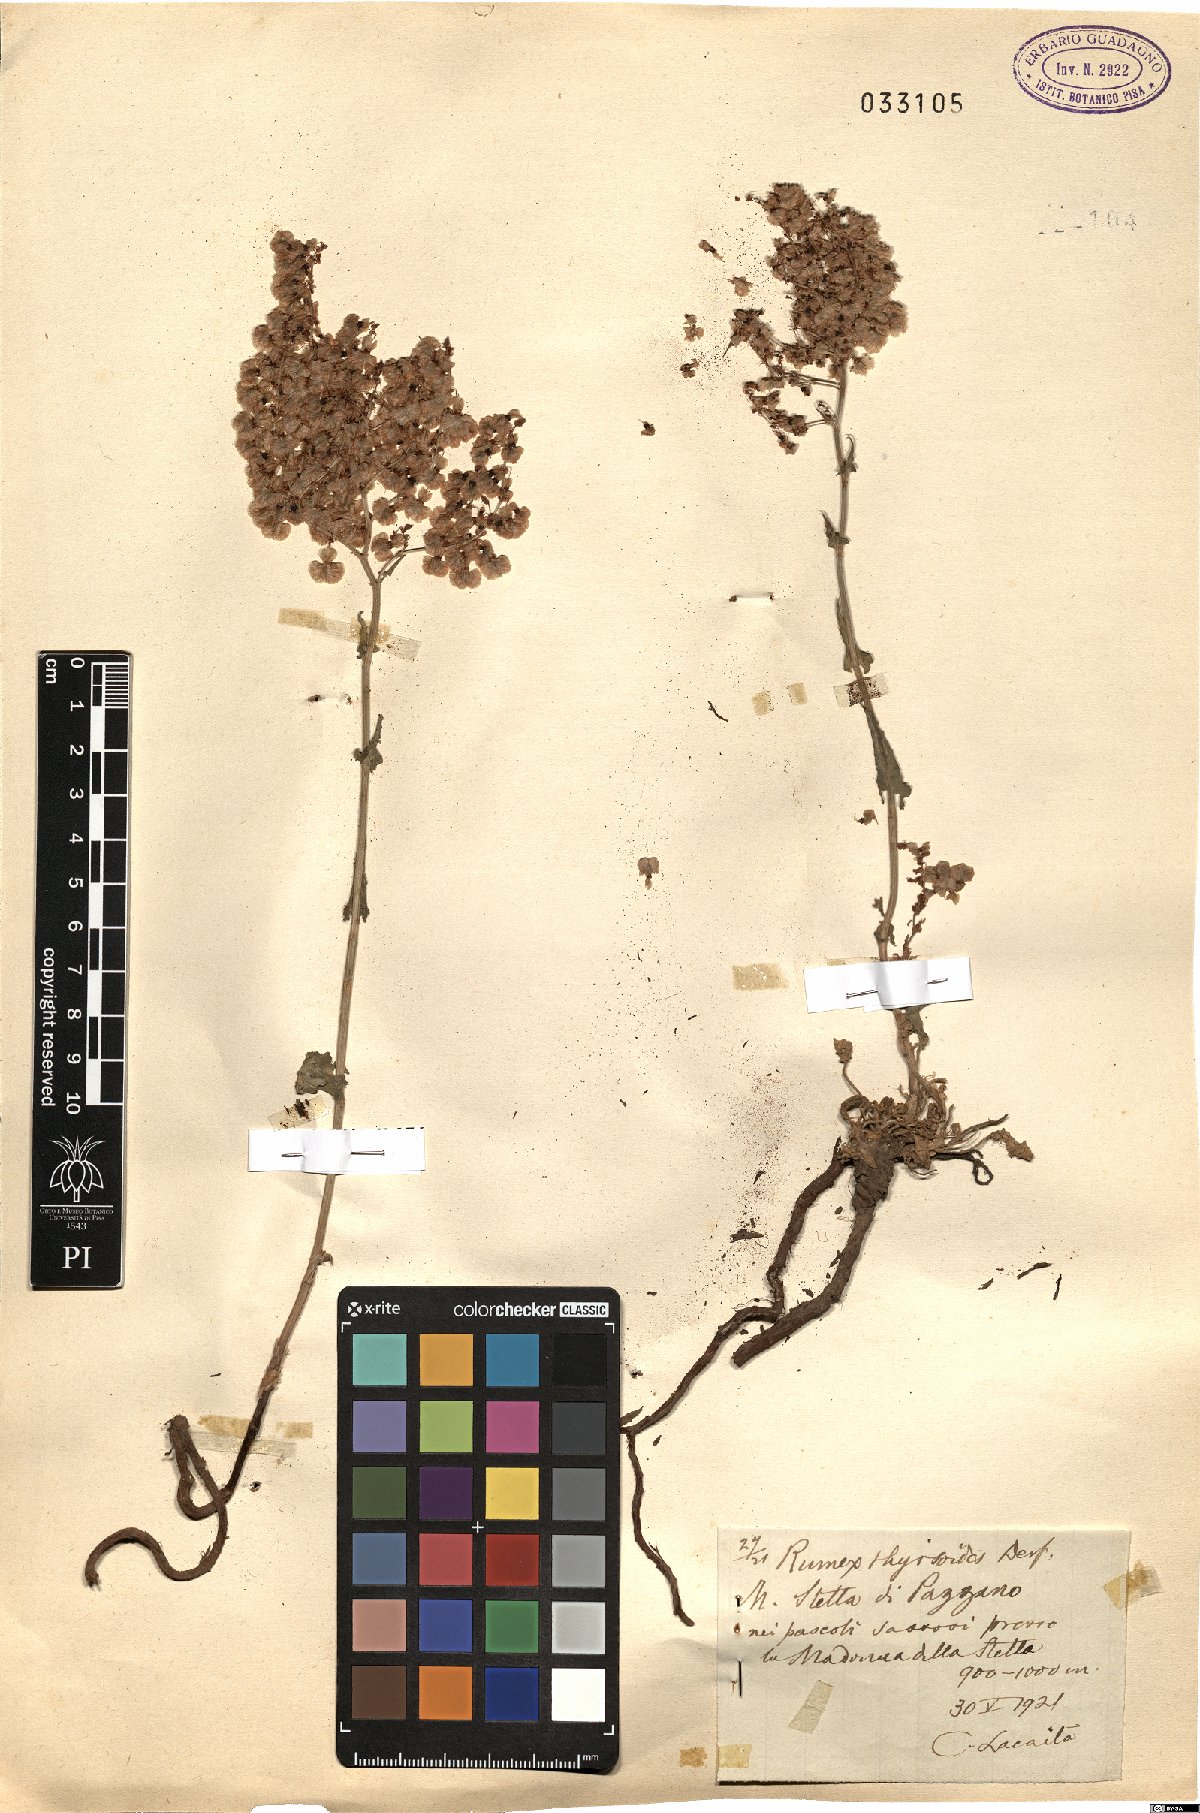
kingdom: Plantae
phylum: Tracheophyta
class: Magnoliopsida
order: Caryophyllales
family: Polygonaceae
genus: Rumex
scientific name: Rumex thyrsoides
